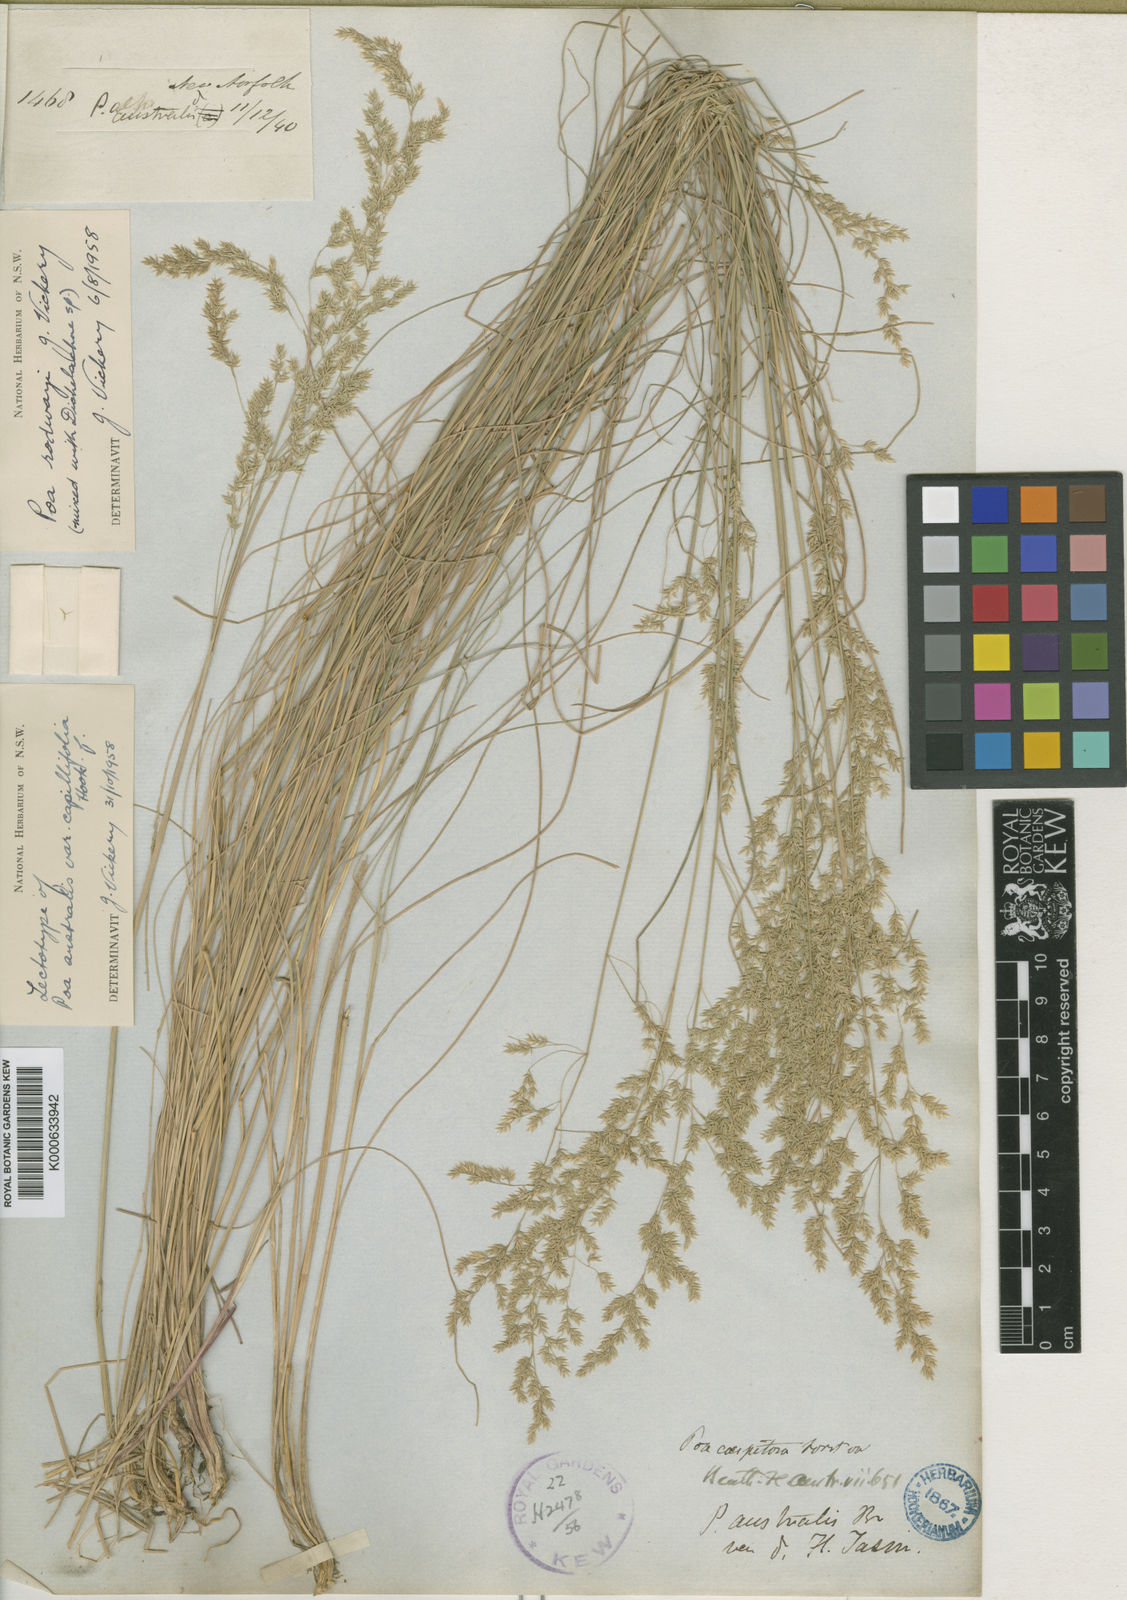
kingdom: Plantae
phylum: Tracheophyta
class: Liliopsida
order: Poales
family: Poaceae
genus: Poa
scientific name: Poa rodwayi
